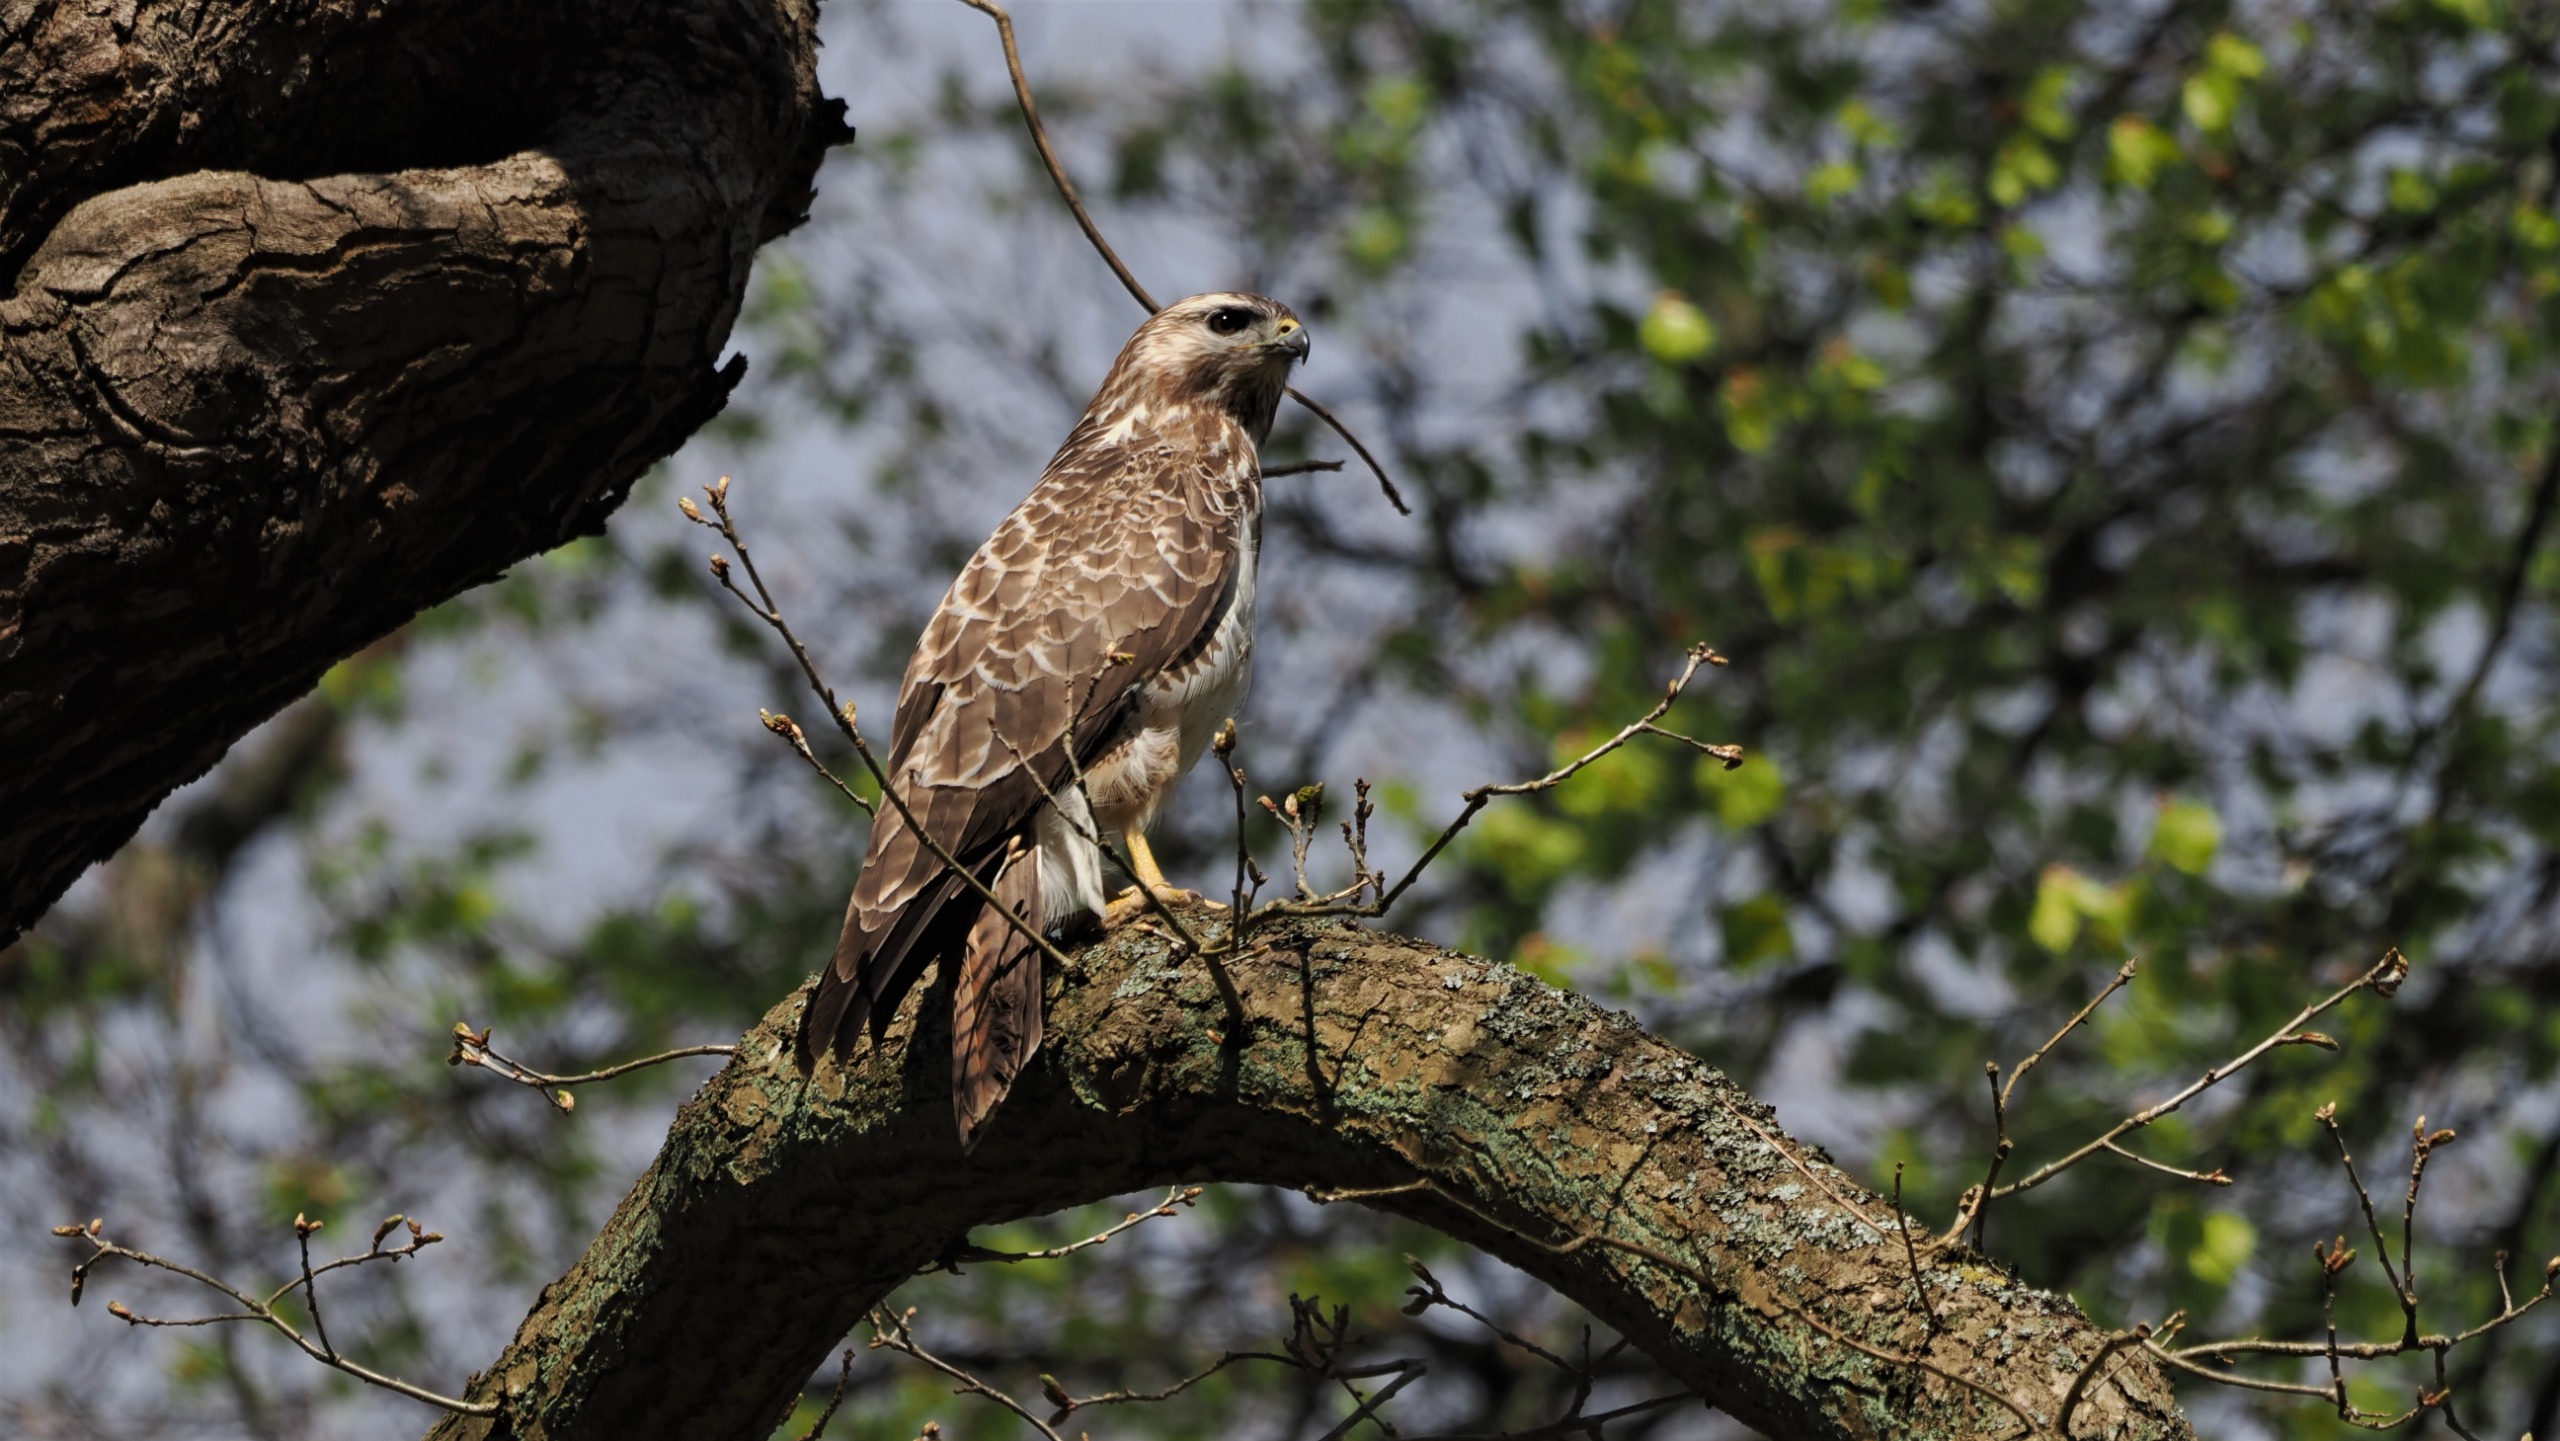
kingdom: Animalia
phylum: Chordata
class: Aves
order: Accipitriformes
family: Accipitridae
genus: Buteo
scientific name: Buteo buteo
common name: Musvåge
